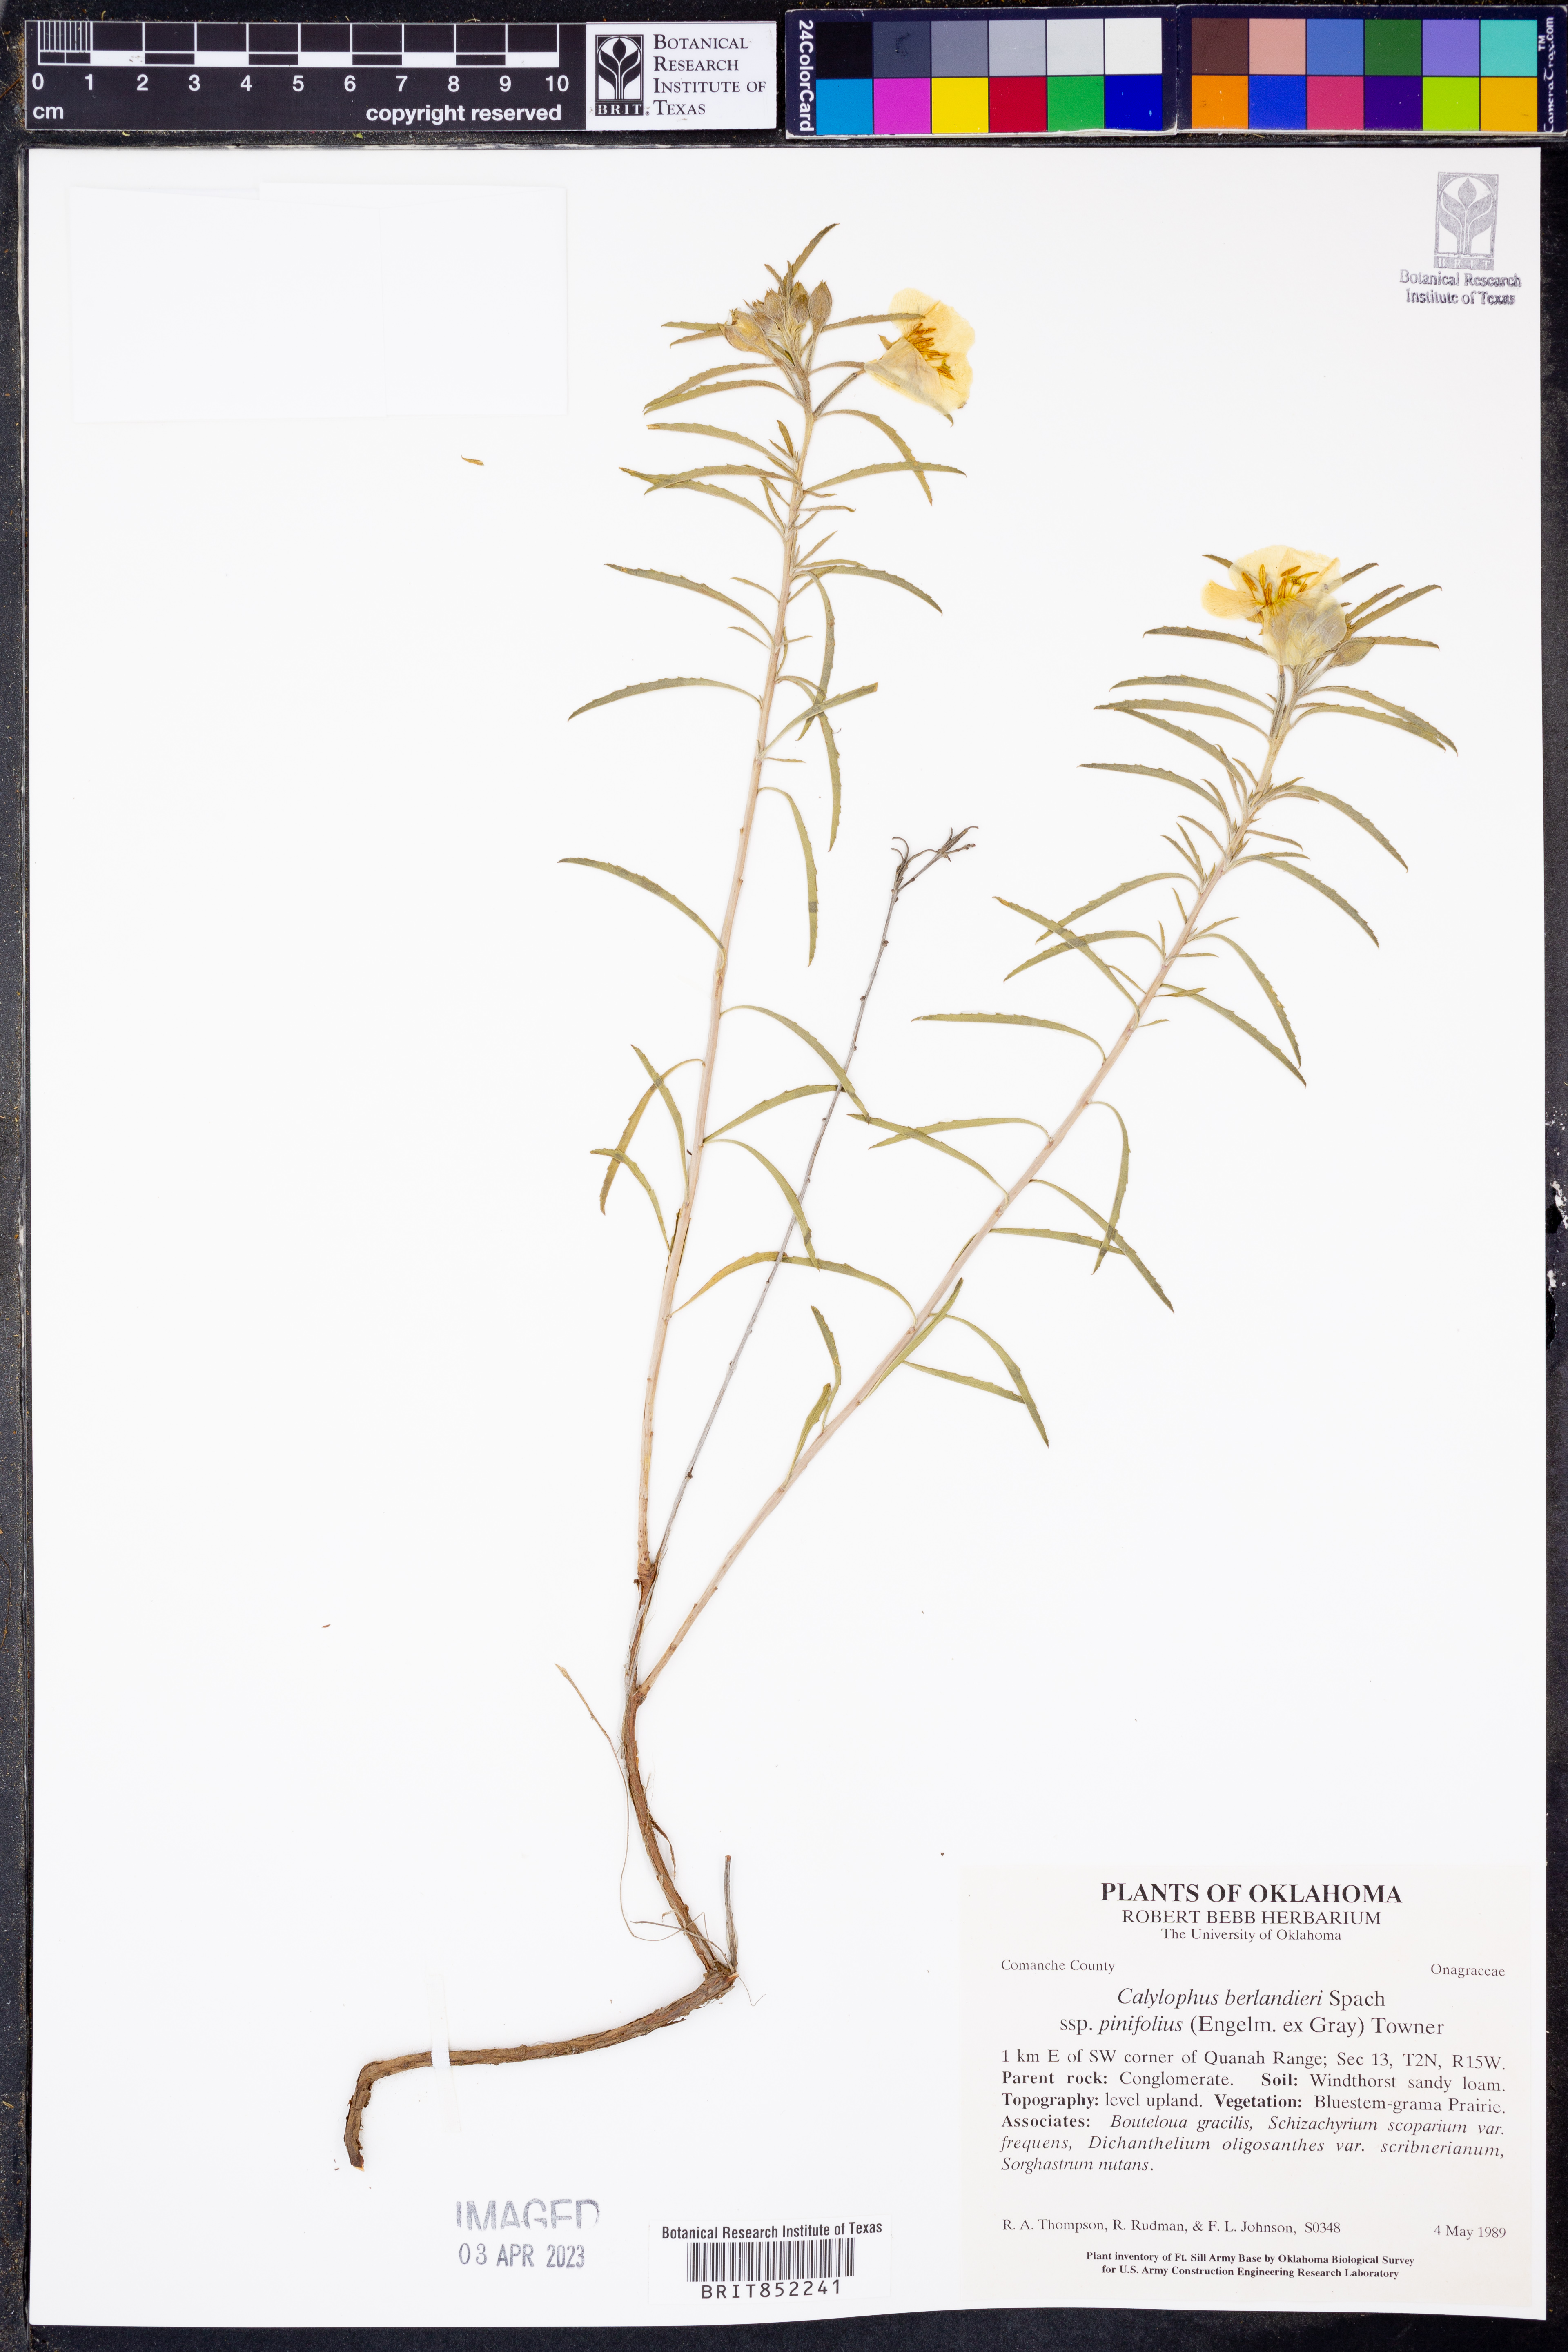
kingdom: Plantae
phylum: Tracheophyta
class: Magnoliopsida
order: Myrtales
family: Onagraceae
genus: Oenothera
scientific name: Oenothera capillifolia
